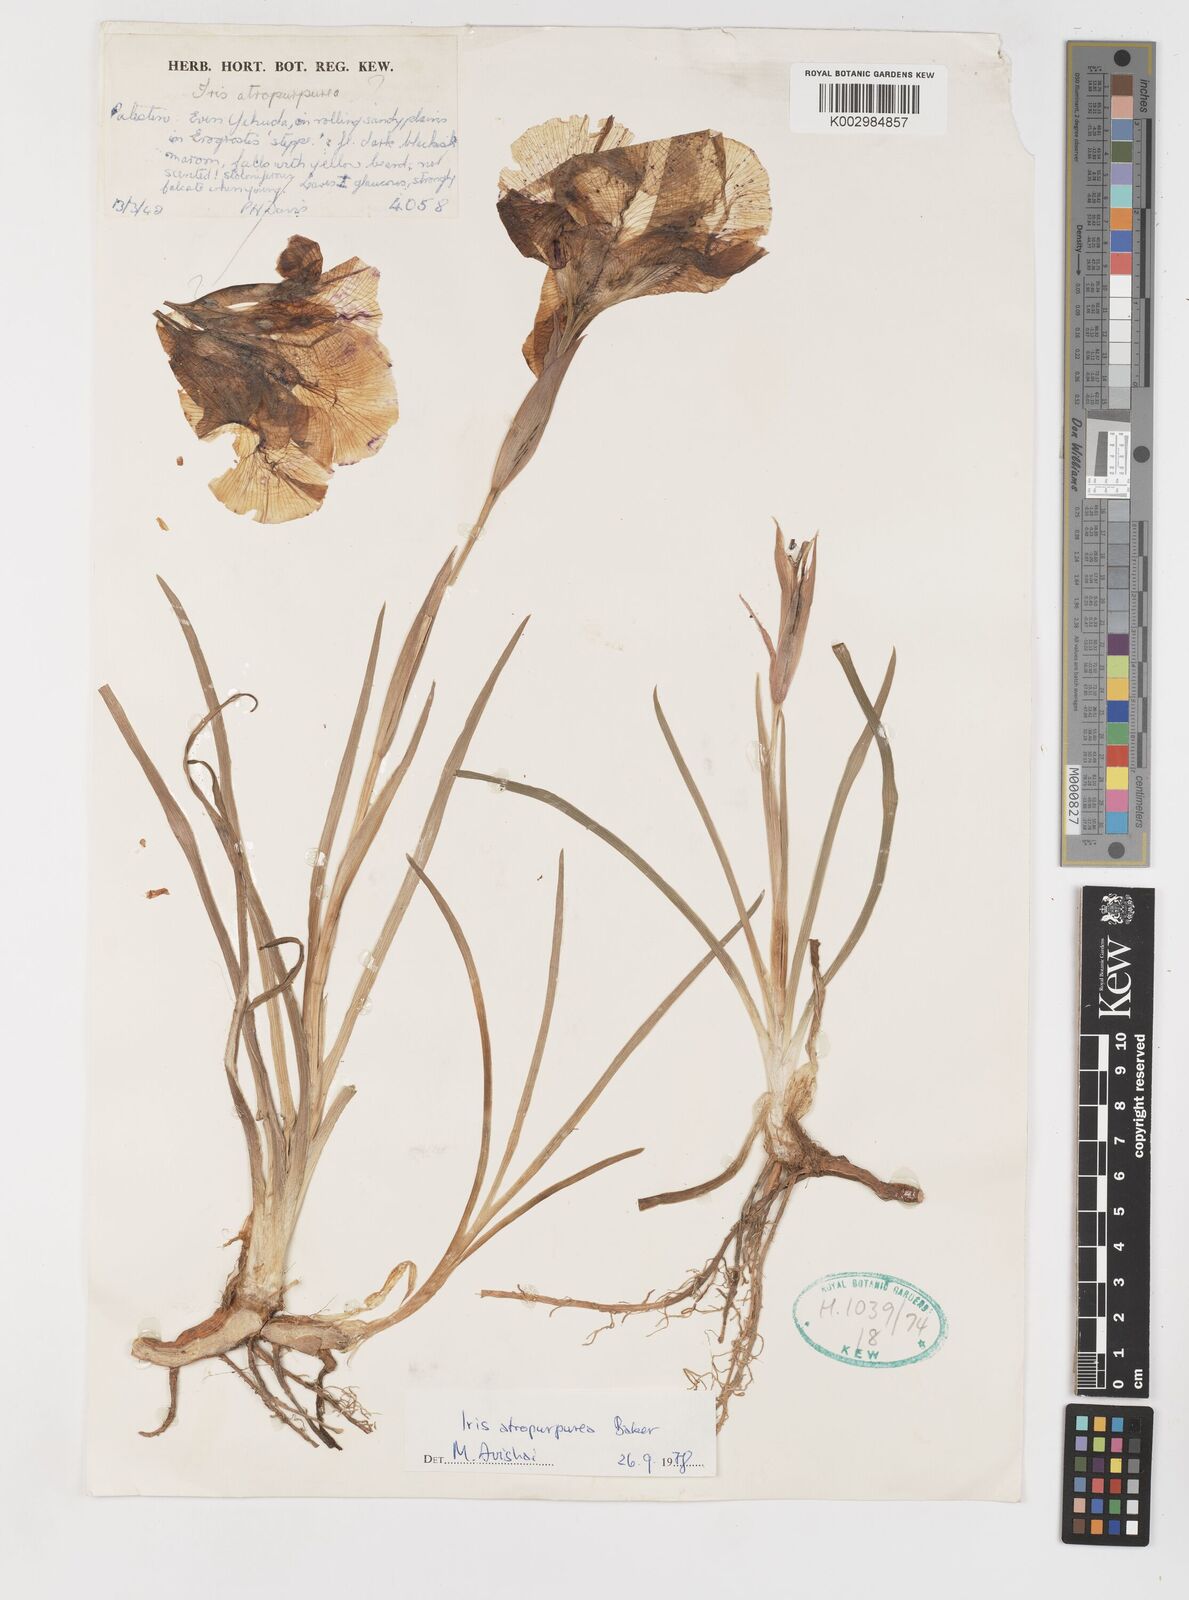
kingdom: Plantae
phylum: Tracheophyta
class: Liliopsida
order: Asparagales
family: Iridaceae
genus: Iris
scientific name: Iris atropurpurea
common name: Coastal iris
